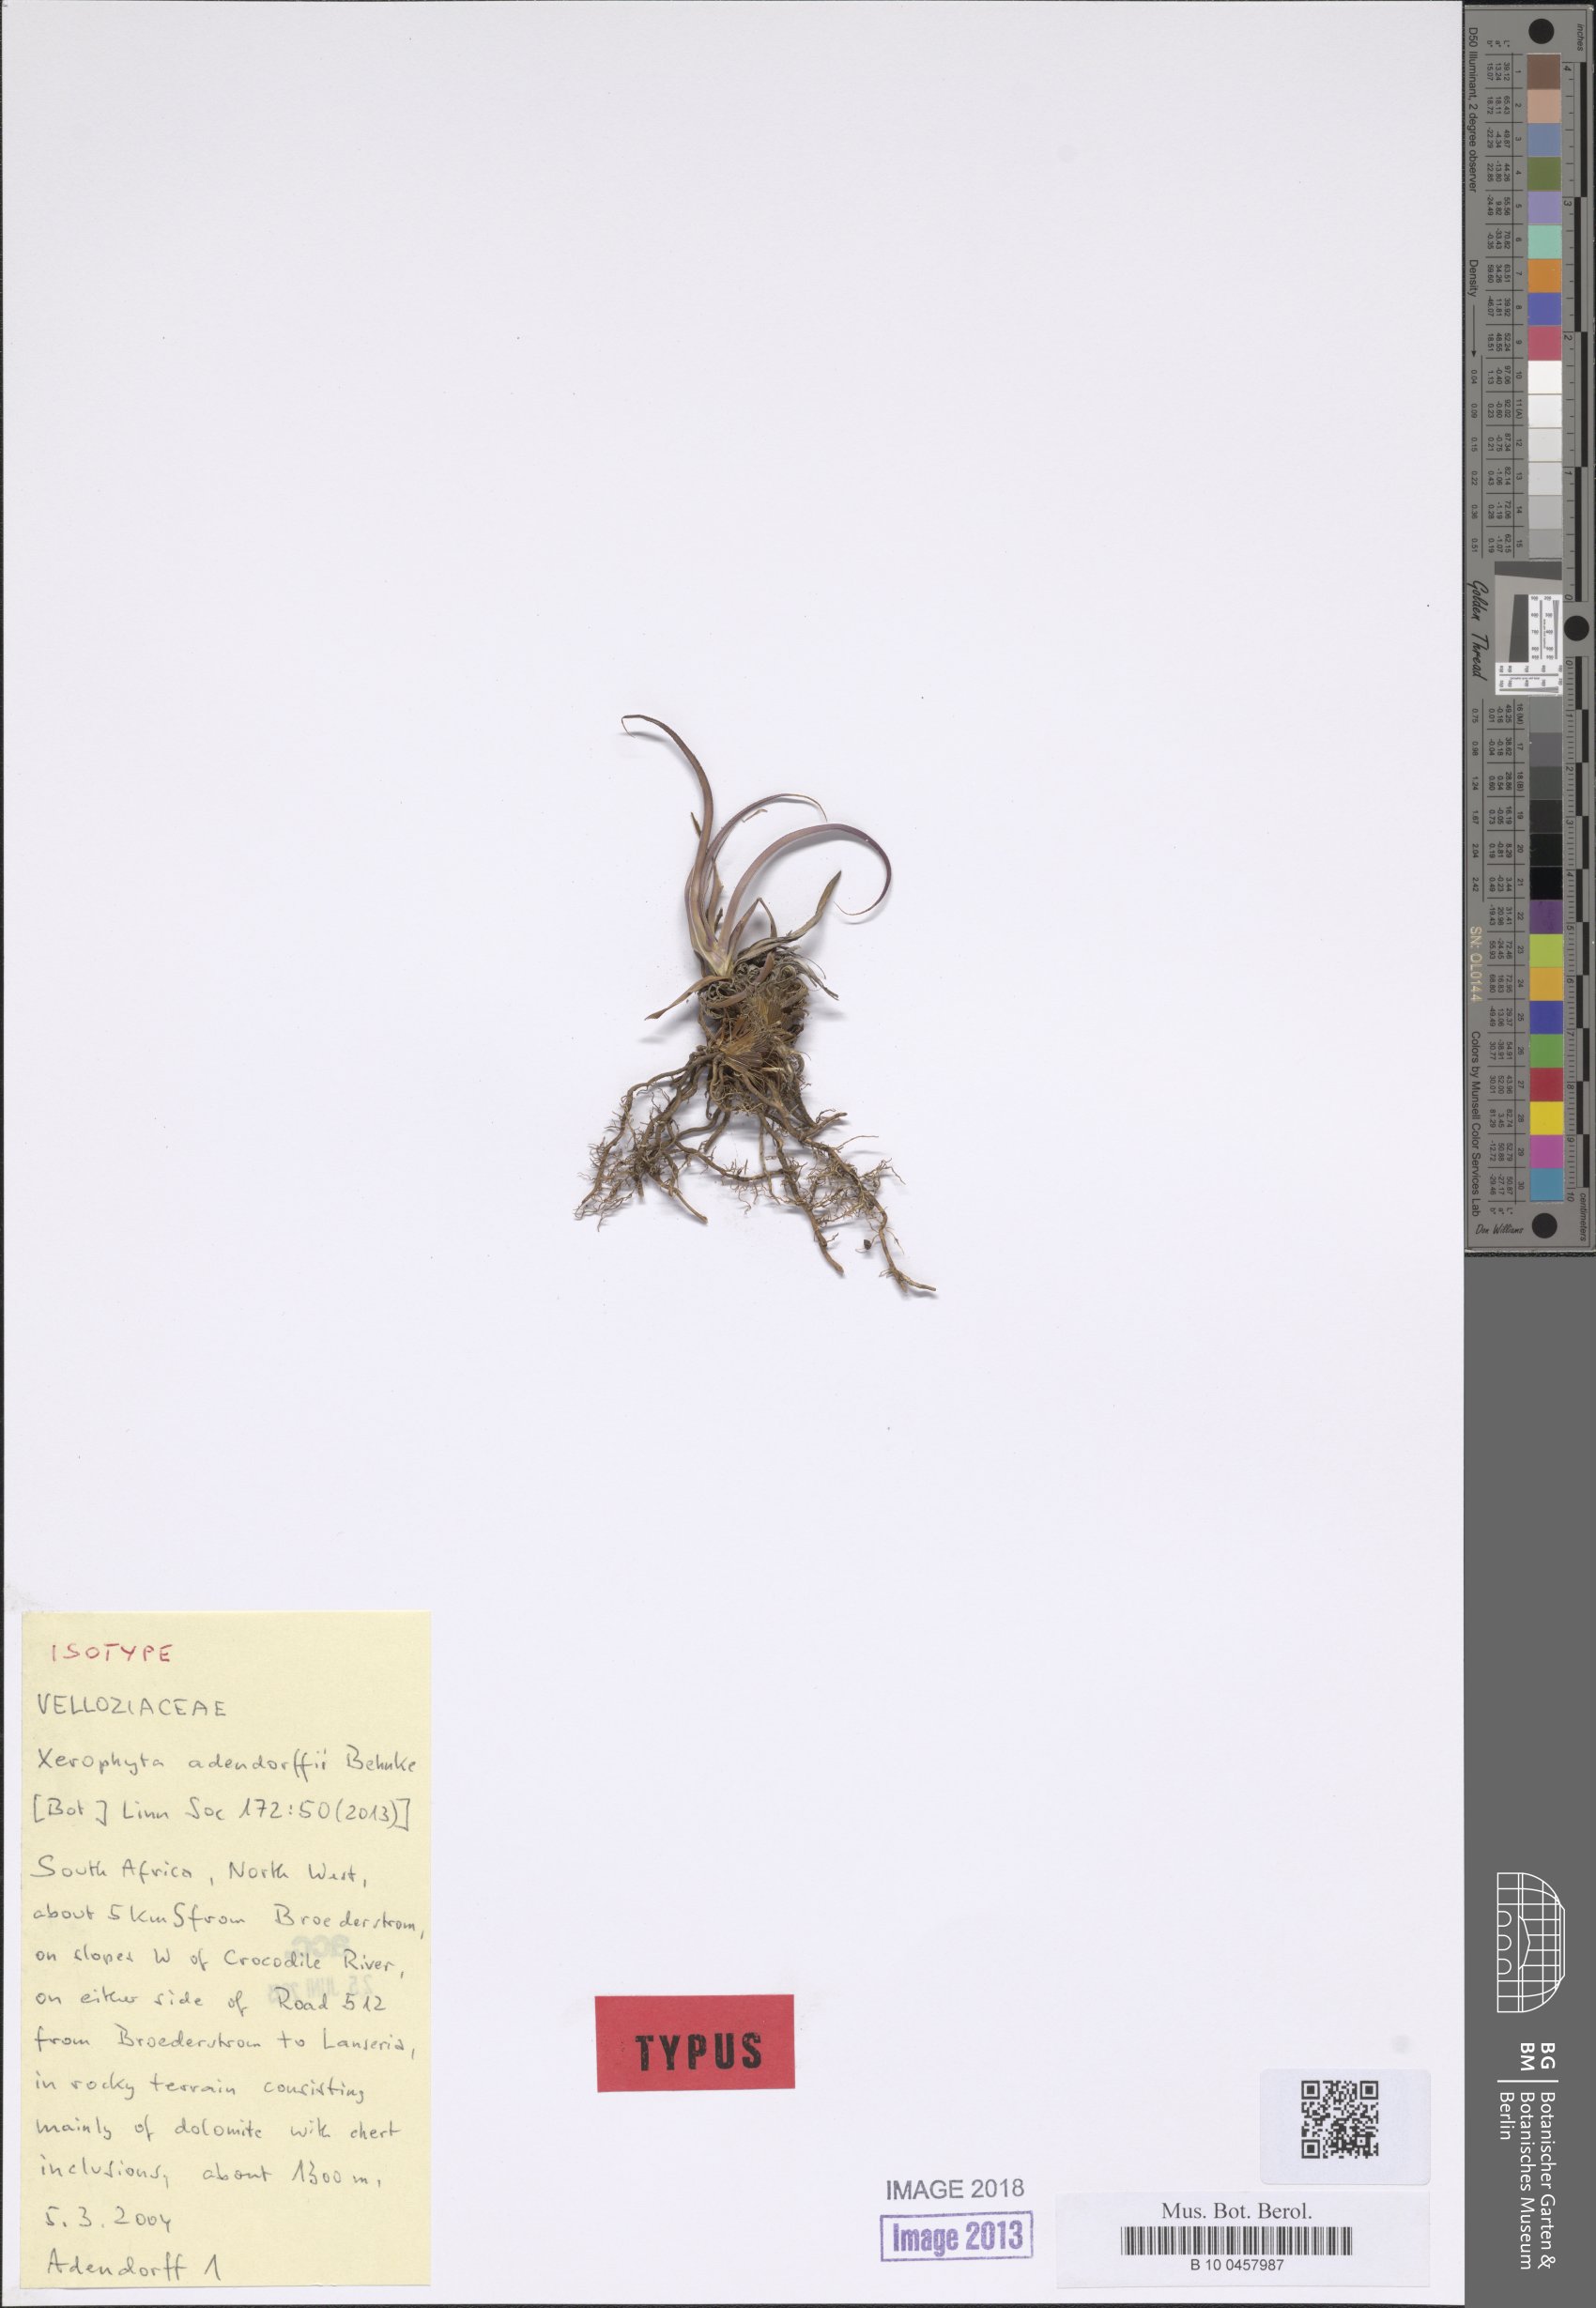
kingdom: Plantae
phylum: Tracheophyta
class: Liliopsida
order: Pandanales
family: Velloziaceae
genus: Xerophyta
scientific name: Xerophyta adendorffii
